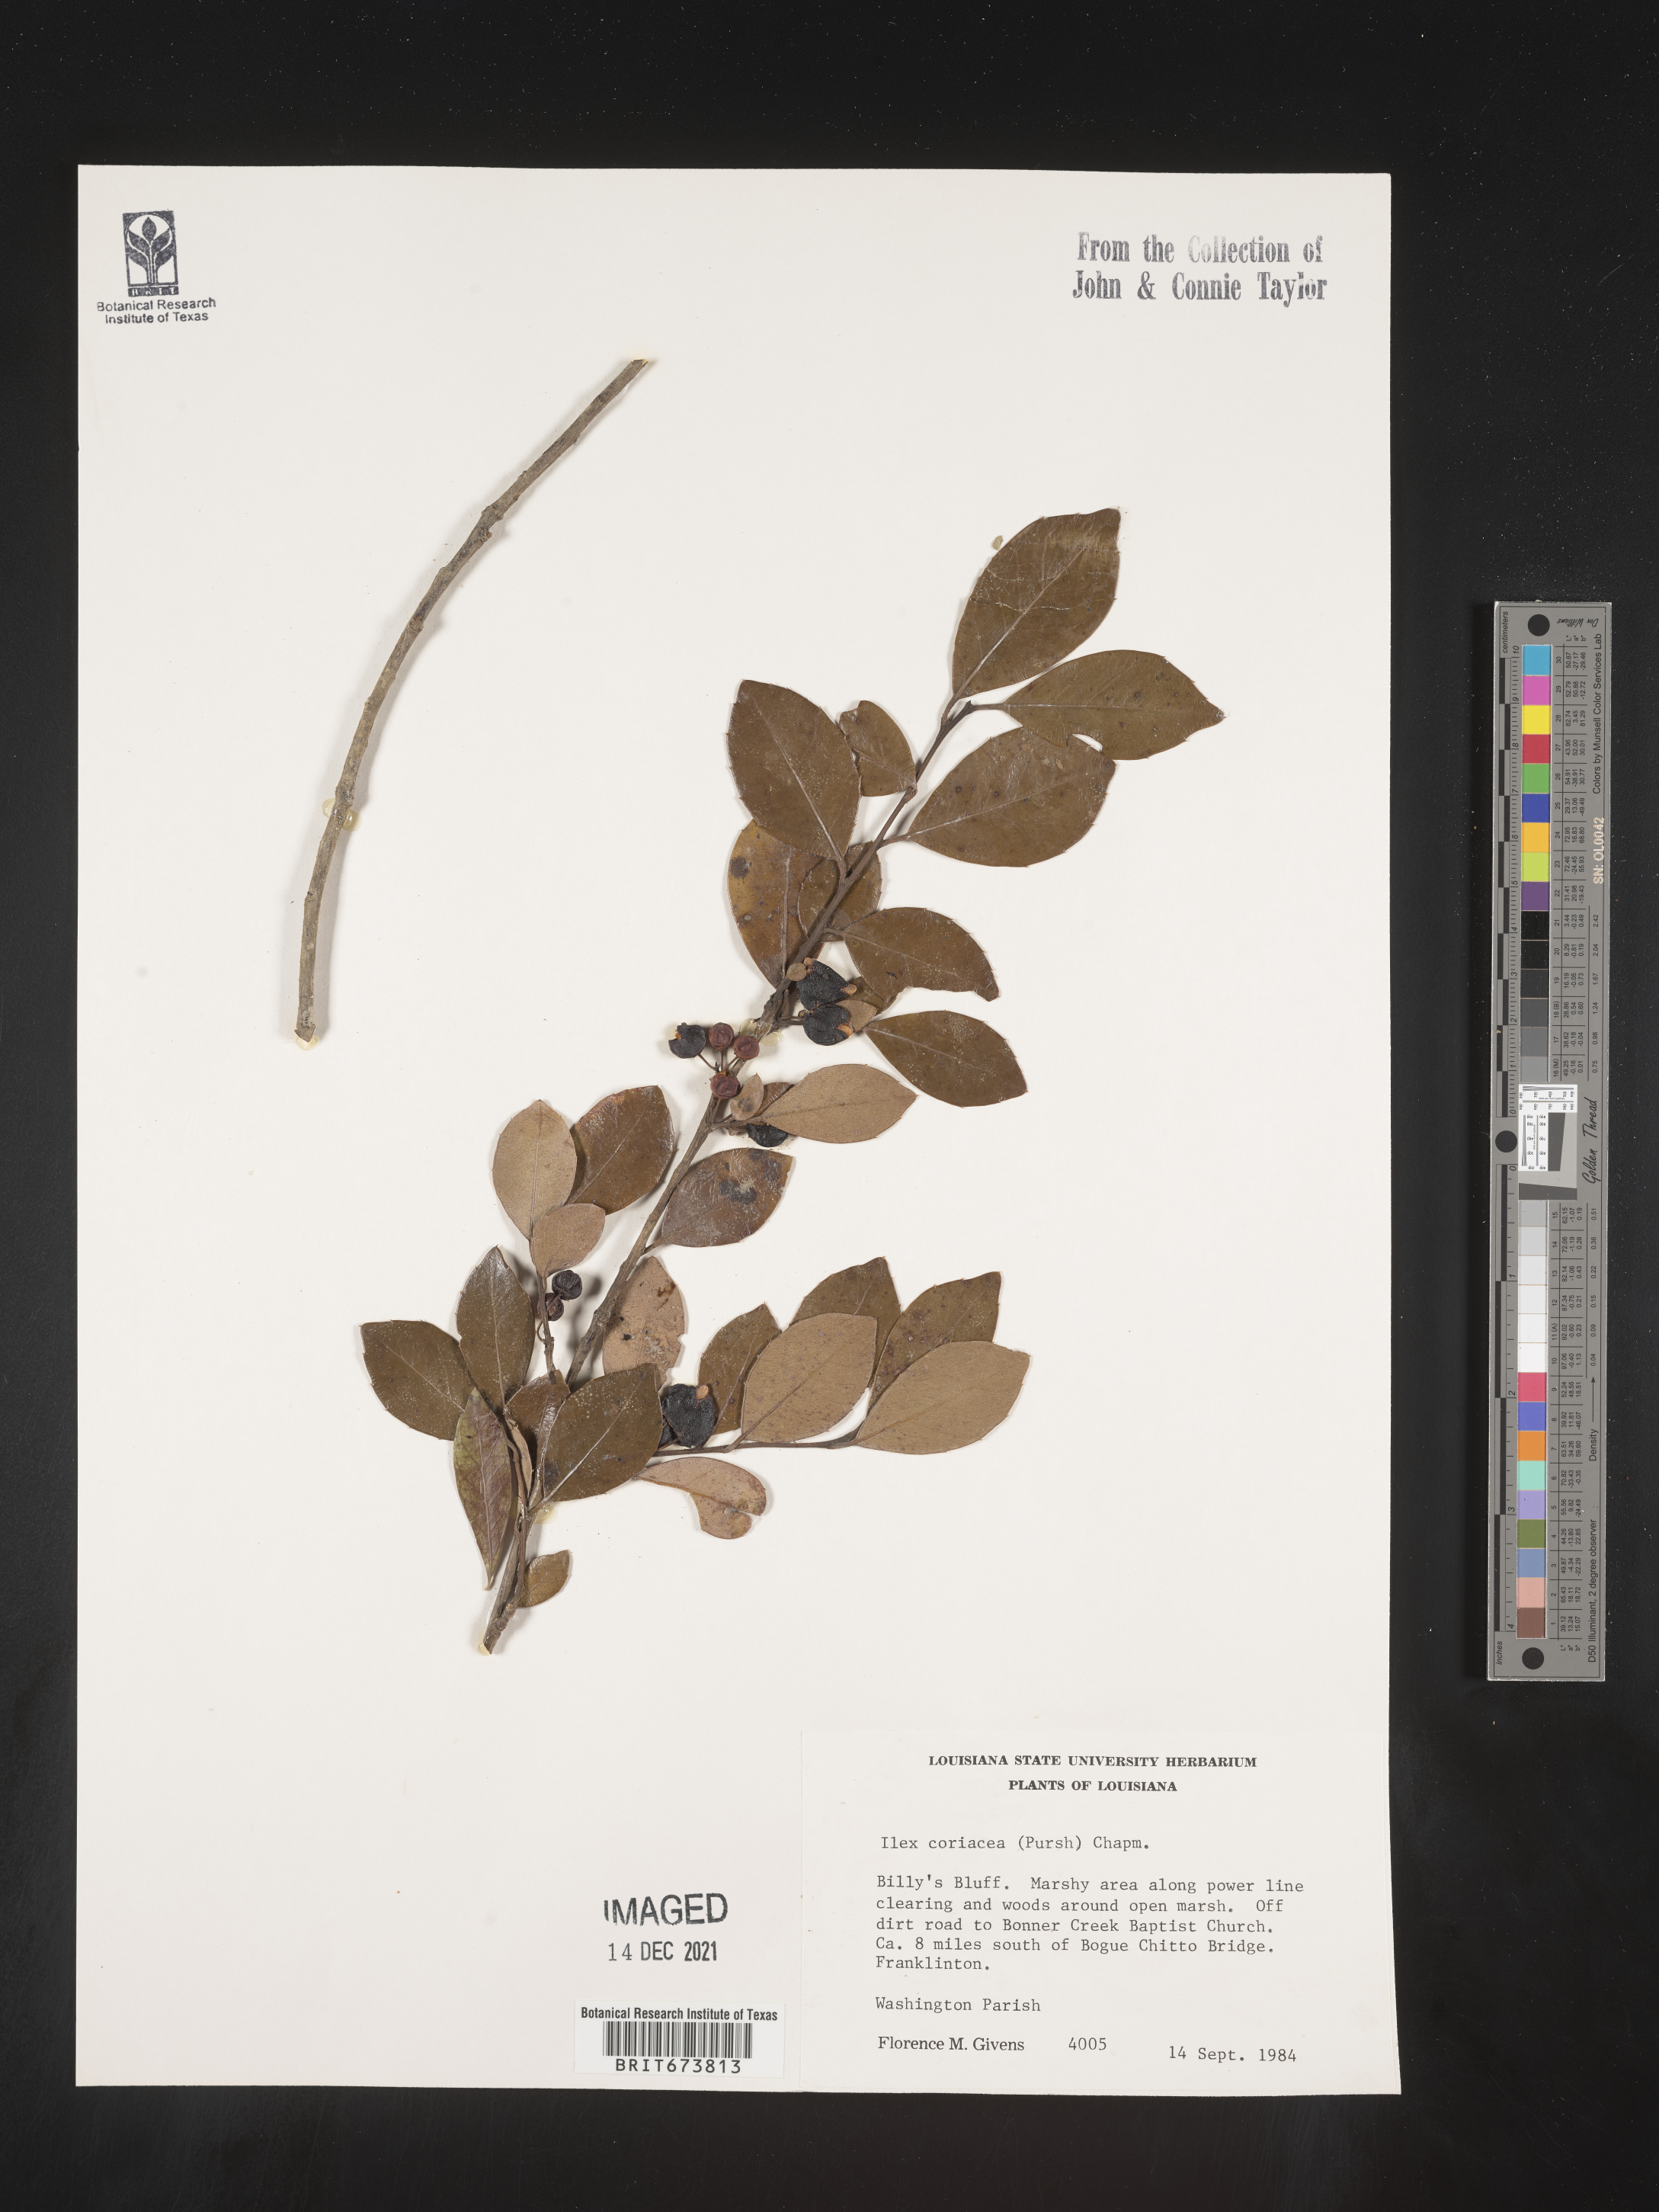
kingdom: Plantae
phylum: Tracheophyta
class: Magnoliopsida
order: Aquifoliales
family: Aquifoliaceae
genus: Ilex
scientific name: Ilex coriacea
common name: Sweet gallberry
